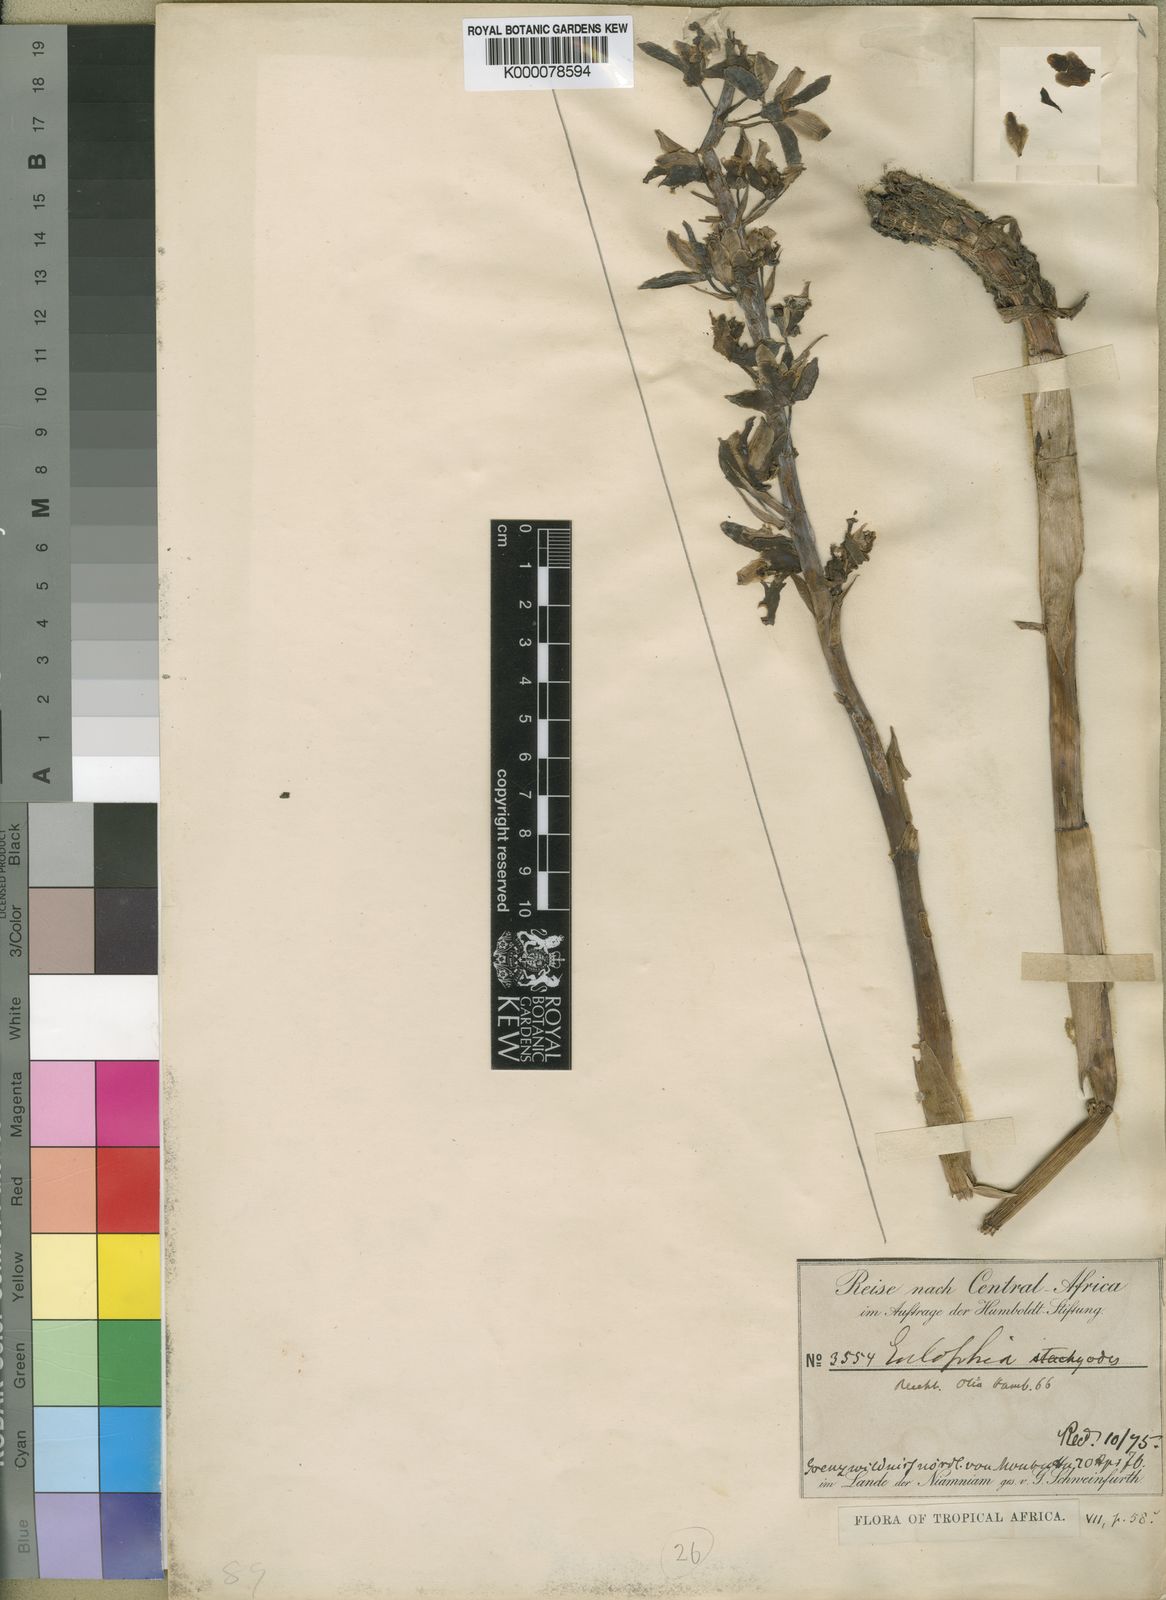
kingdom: Plantae
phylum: Tracheophyta
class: Liliopsida
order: Asparagales
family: Orchidaceae
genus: Eulophia
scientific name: Eulophia stachyodes
